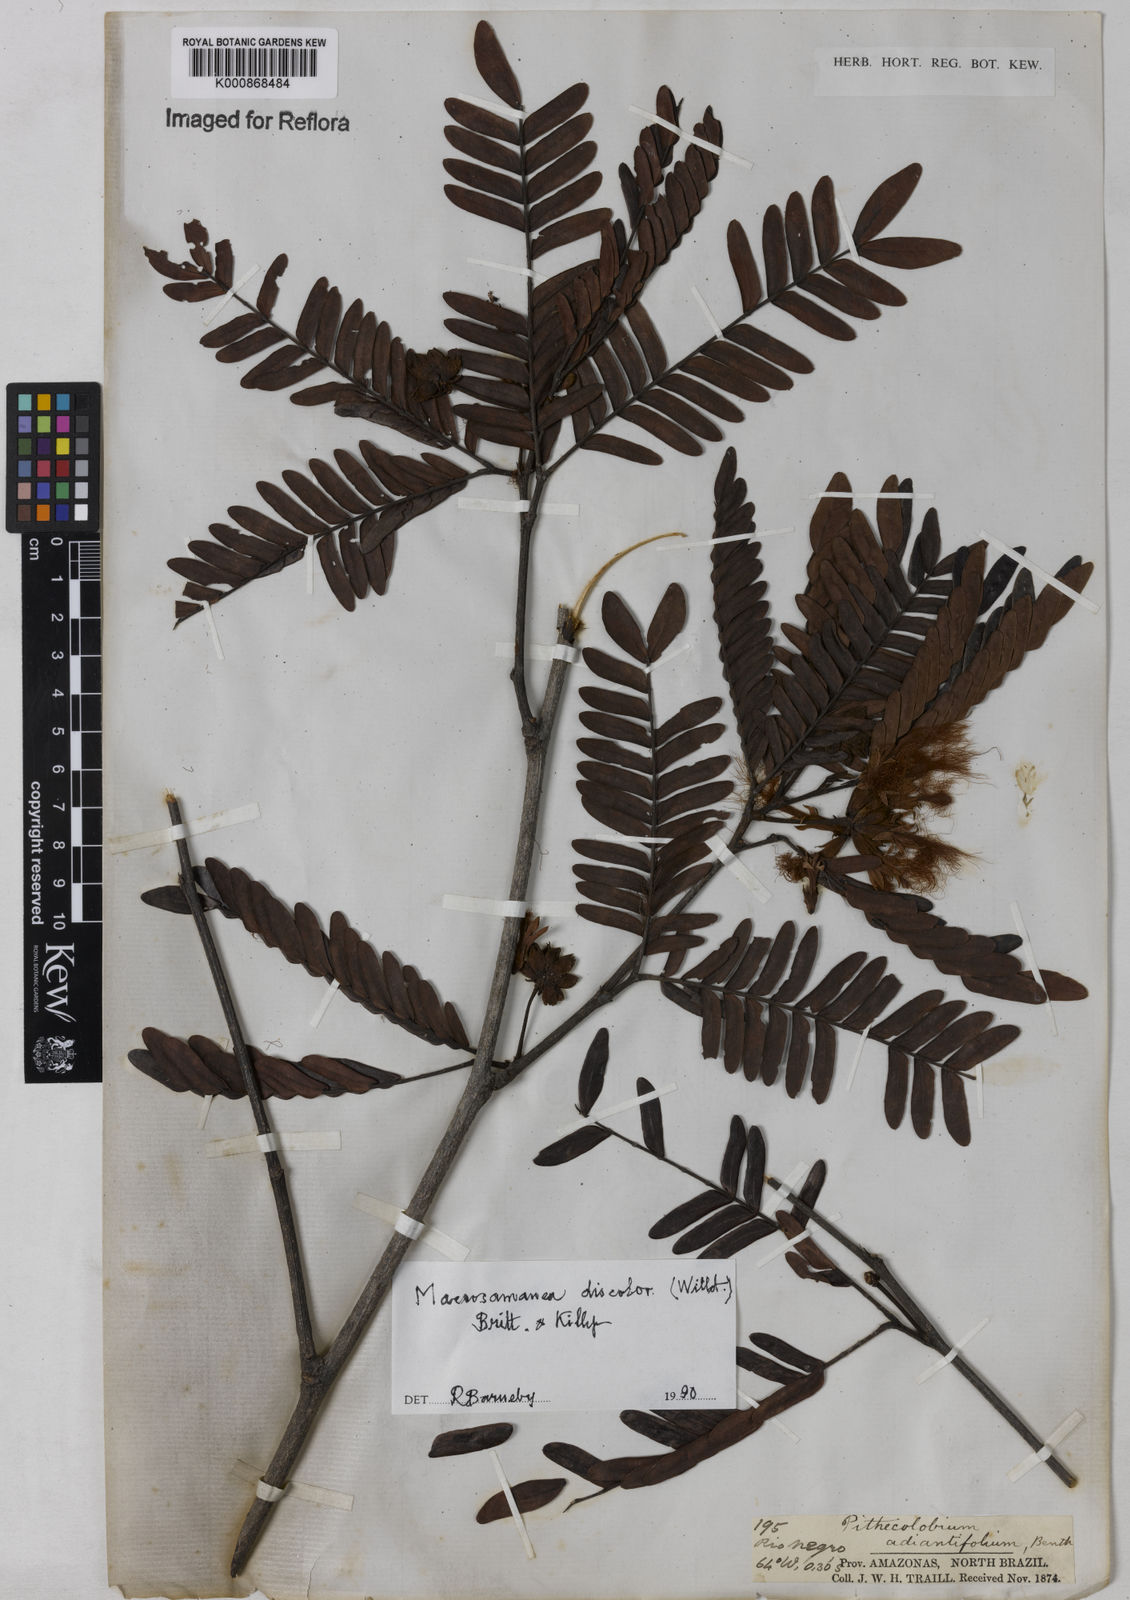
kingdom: Plantae
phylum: Tracheophyta
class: Magnoliopsida
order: Fabales
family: Fabaceae
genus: Macrosamanea
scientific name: Macrosamanea
